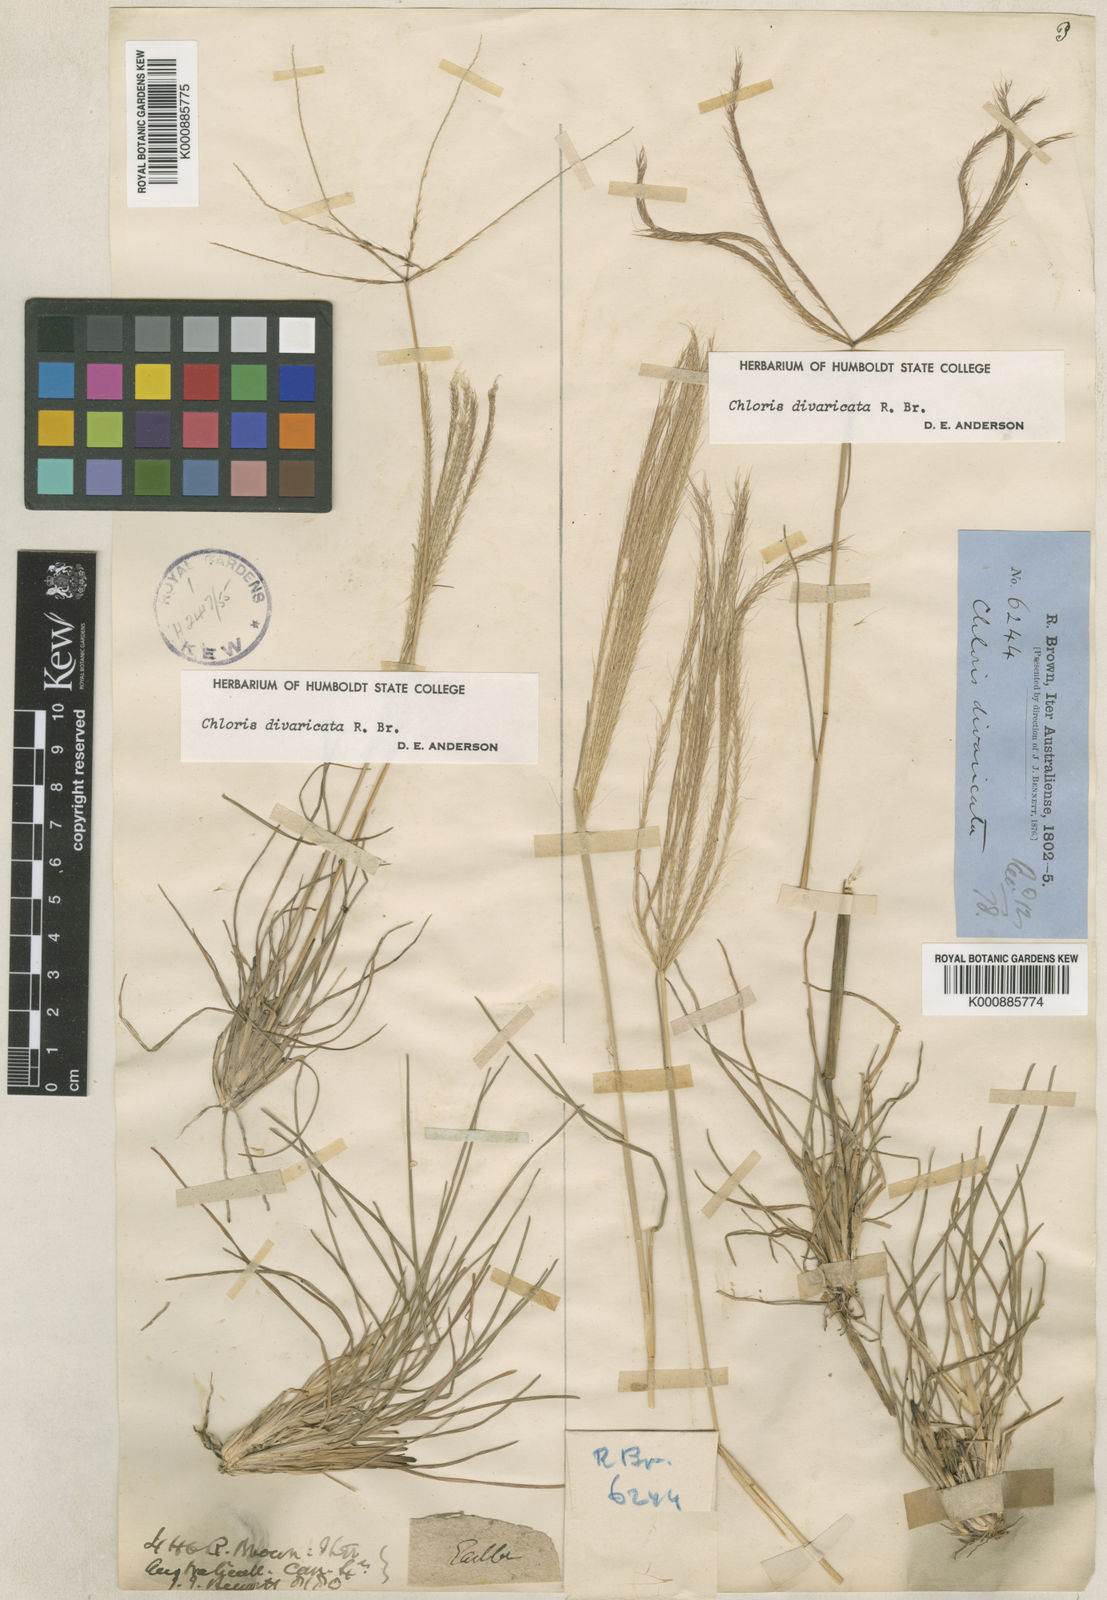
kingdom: Plantae
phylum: Tracheophyta
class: Liliopsida
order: Poales
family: Poaceae
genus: Chloris
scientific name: Chloris divaricata
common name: Spreading windmill grass
